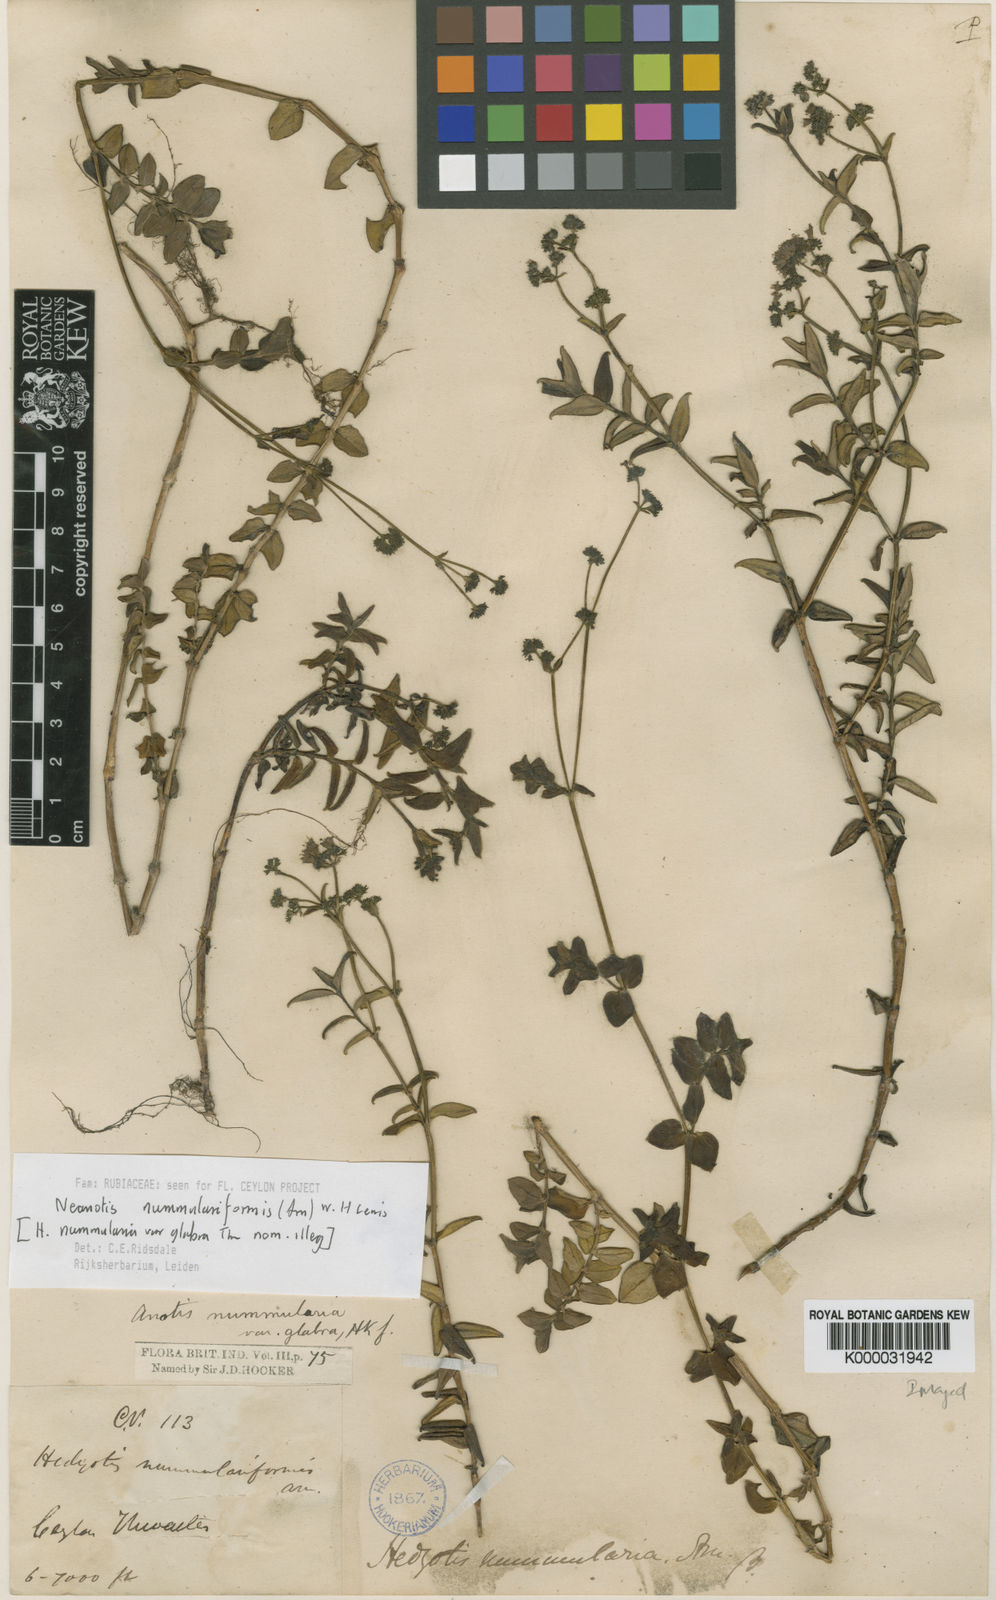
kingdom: Plantae
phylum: Tracheophyta
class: Magnoliopsida
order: Gentianales
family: Rubiaceae
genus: Neanotis
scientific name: Neanotis nummulariiformis
